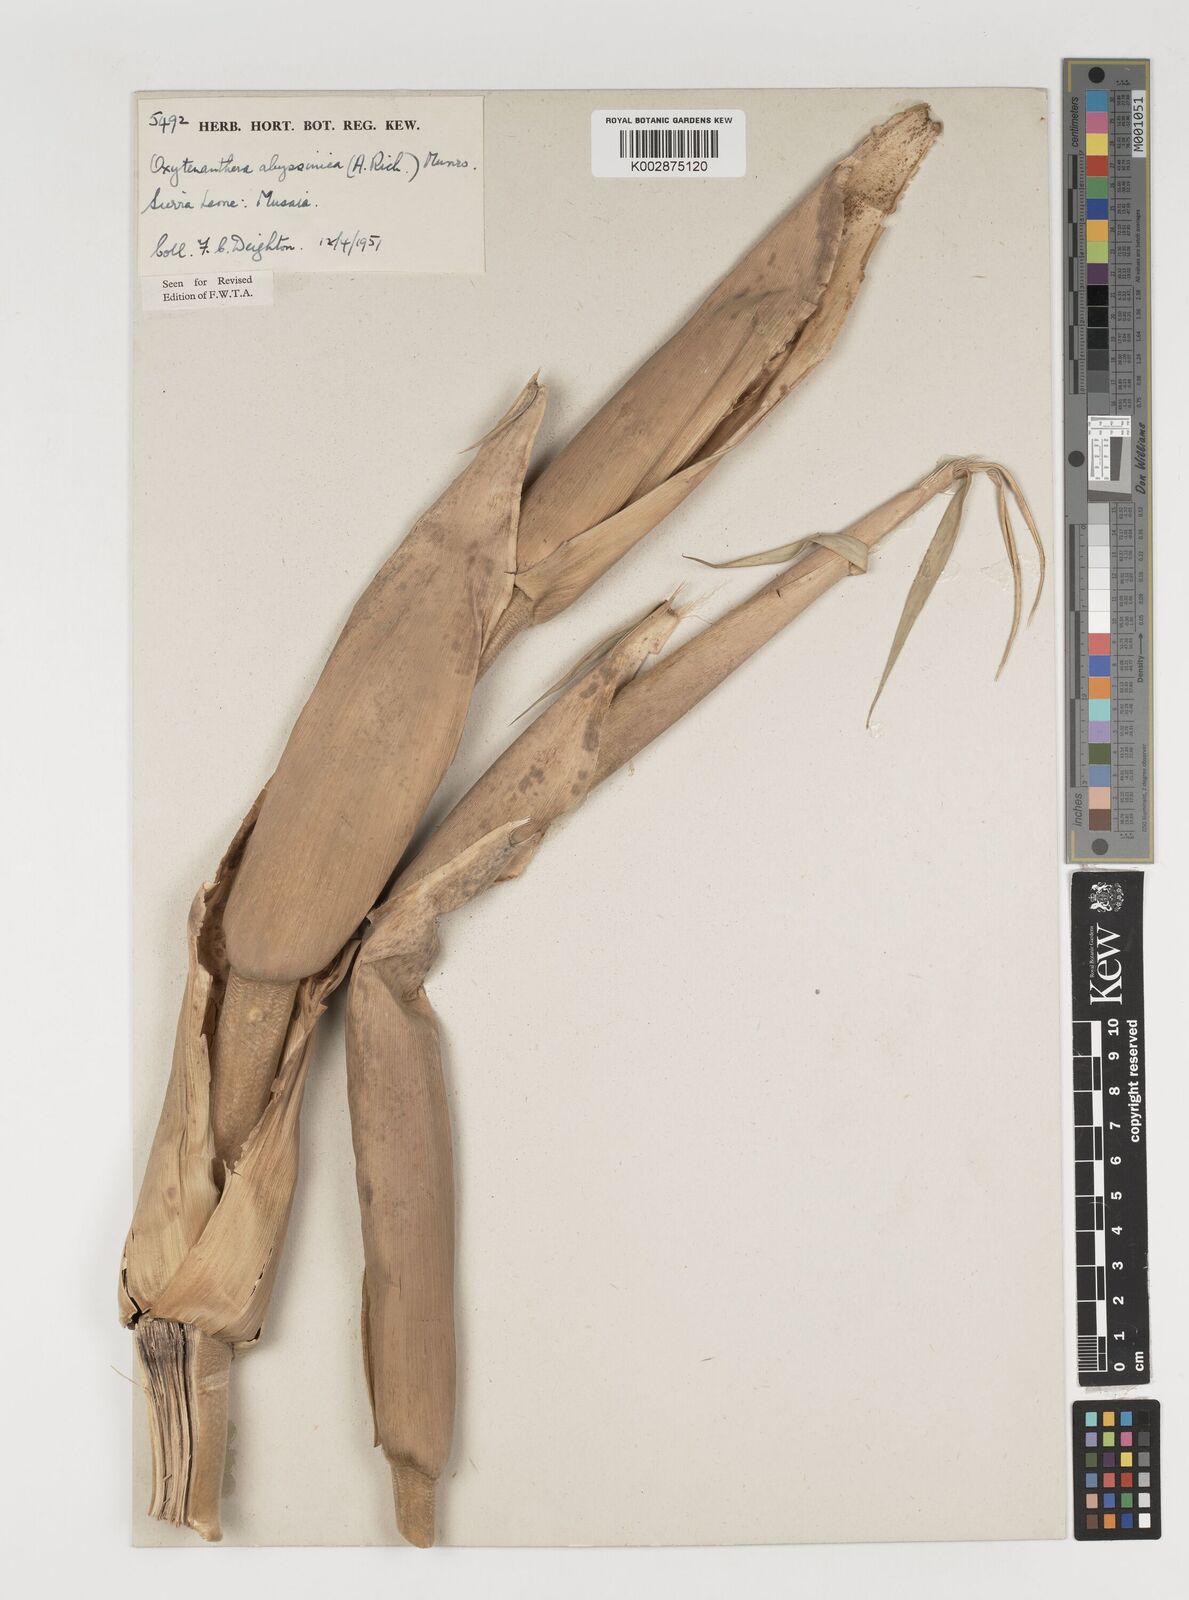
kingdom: Plantae
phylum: Tracheophyta
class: Liliopsida
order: Poales
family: Poaceae
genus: Oxytenanthera
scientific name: Oxytenanthera abyssinica
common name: Wine bamboo
